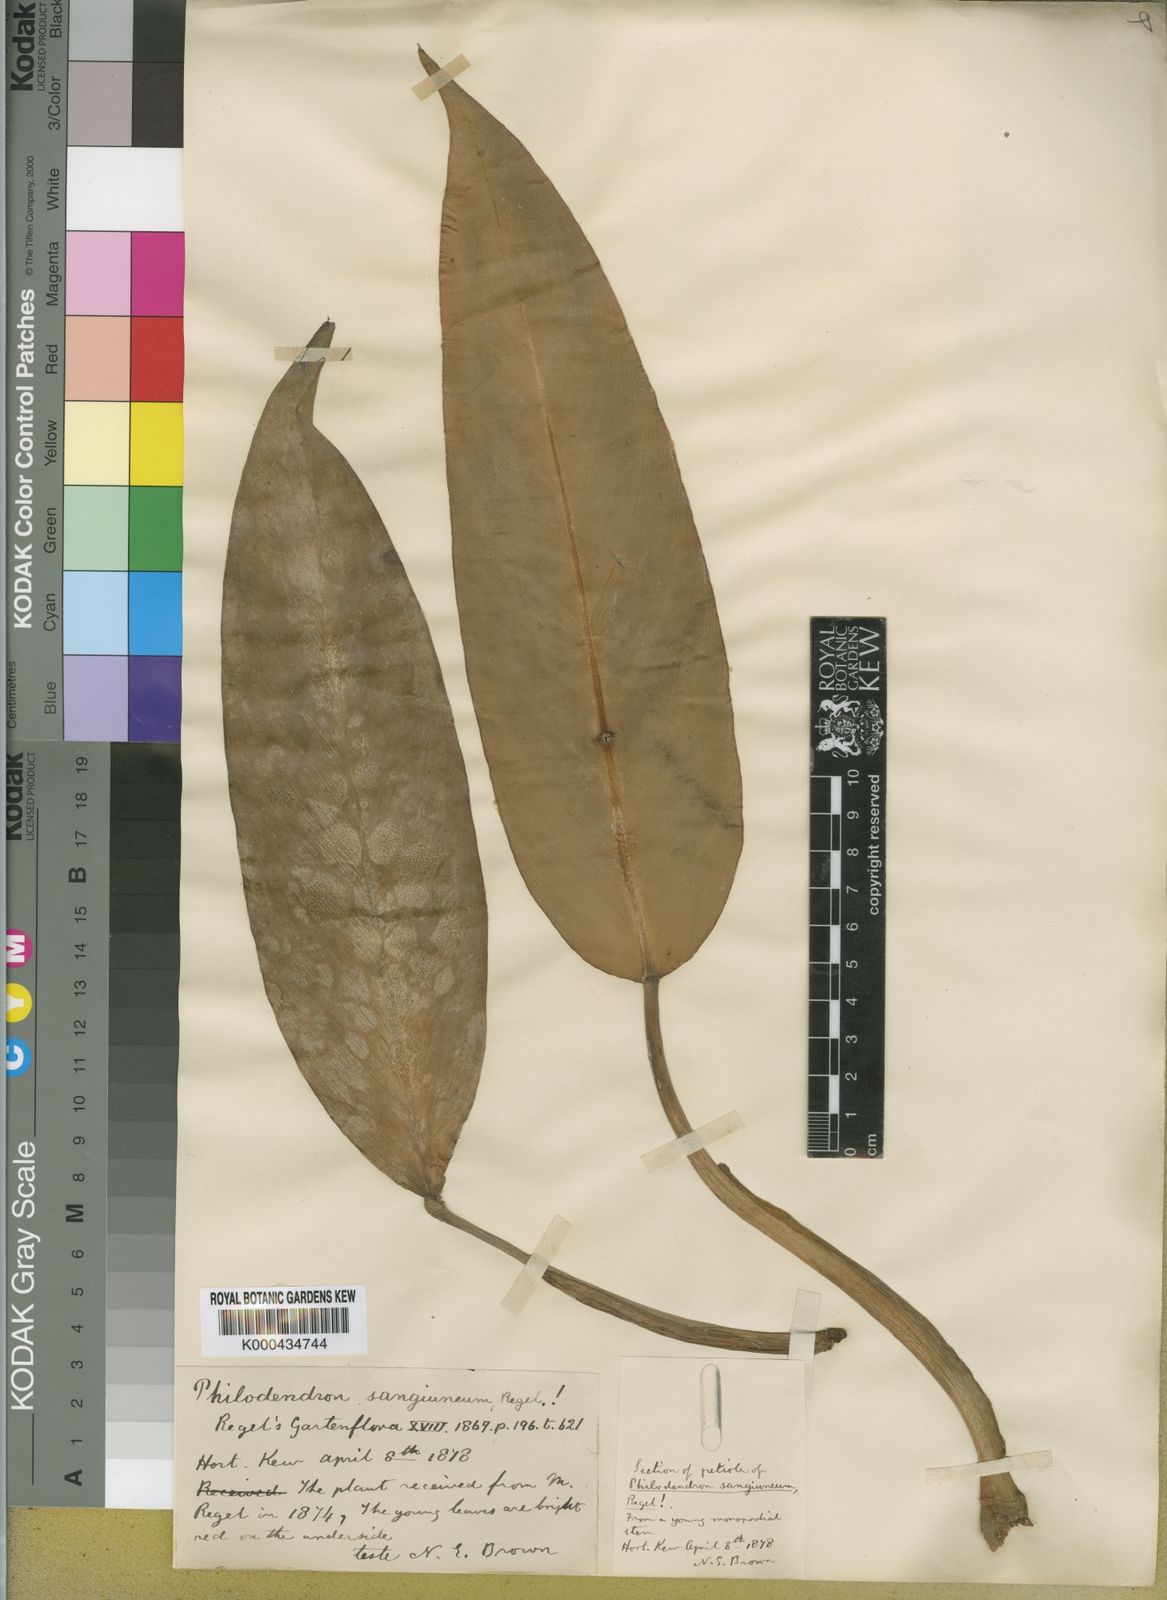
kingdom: Plantae
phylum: Tracheophyta
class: Liliopsida
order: Alismatales
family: Araceae
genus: Philodendron
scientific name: Philodendron sagittifolium
